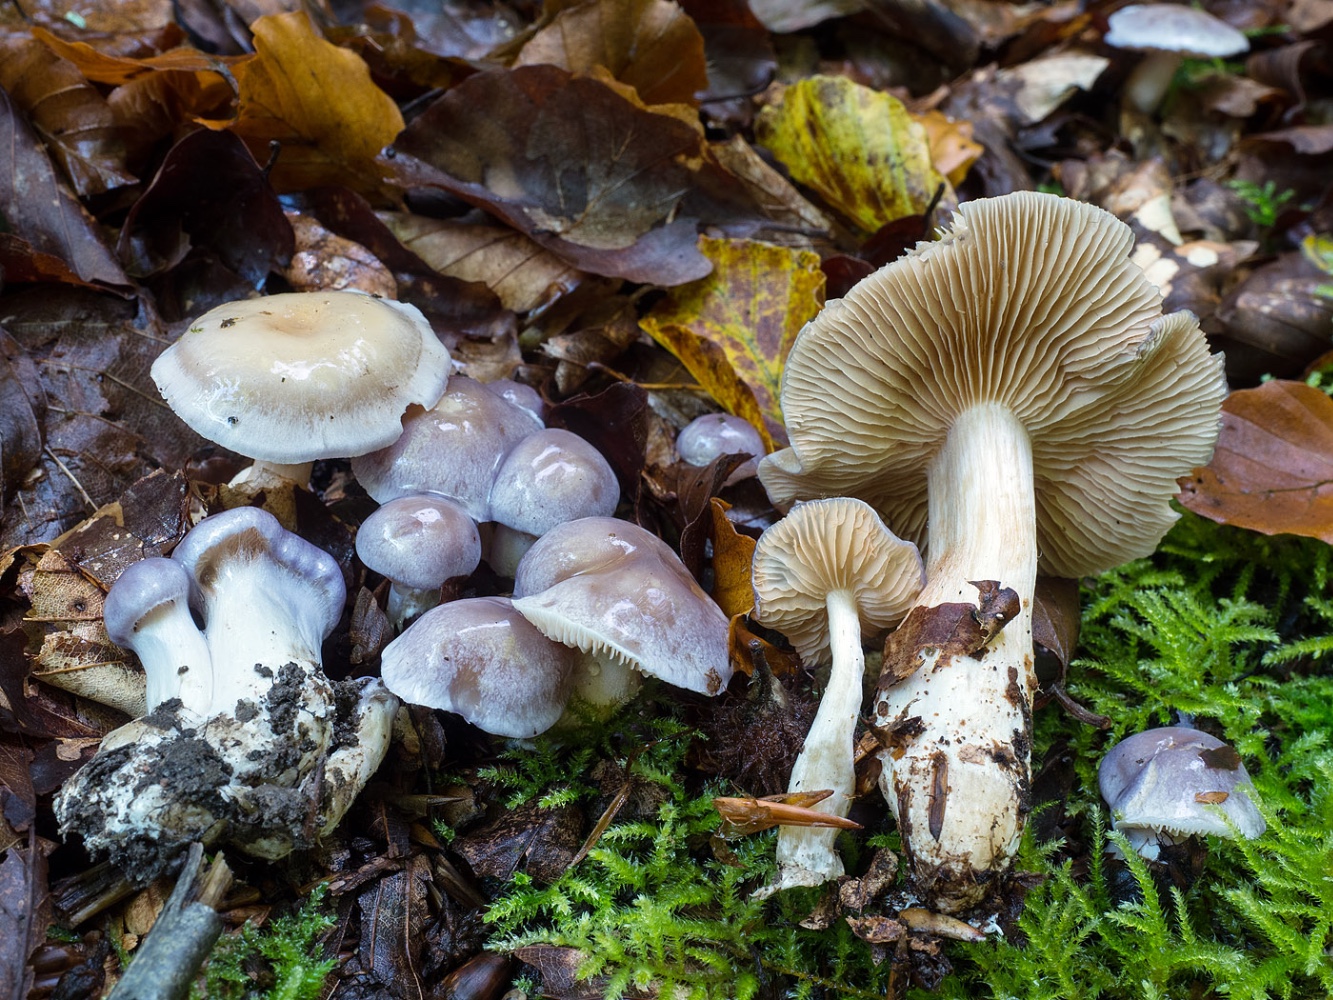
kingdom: Fungi
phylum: Basidiomycota
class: Agaricomycetes
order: Agaricales
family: Cortinariaceae
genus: Thaxterogaster
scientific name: Thaxterogaster croceocoeruleus
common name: blågullig slørhat
